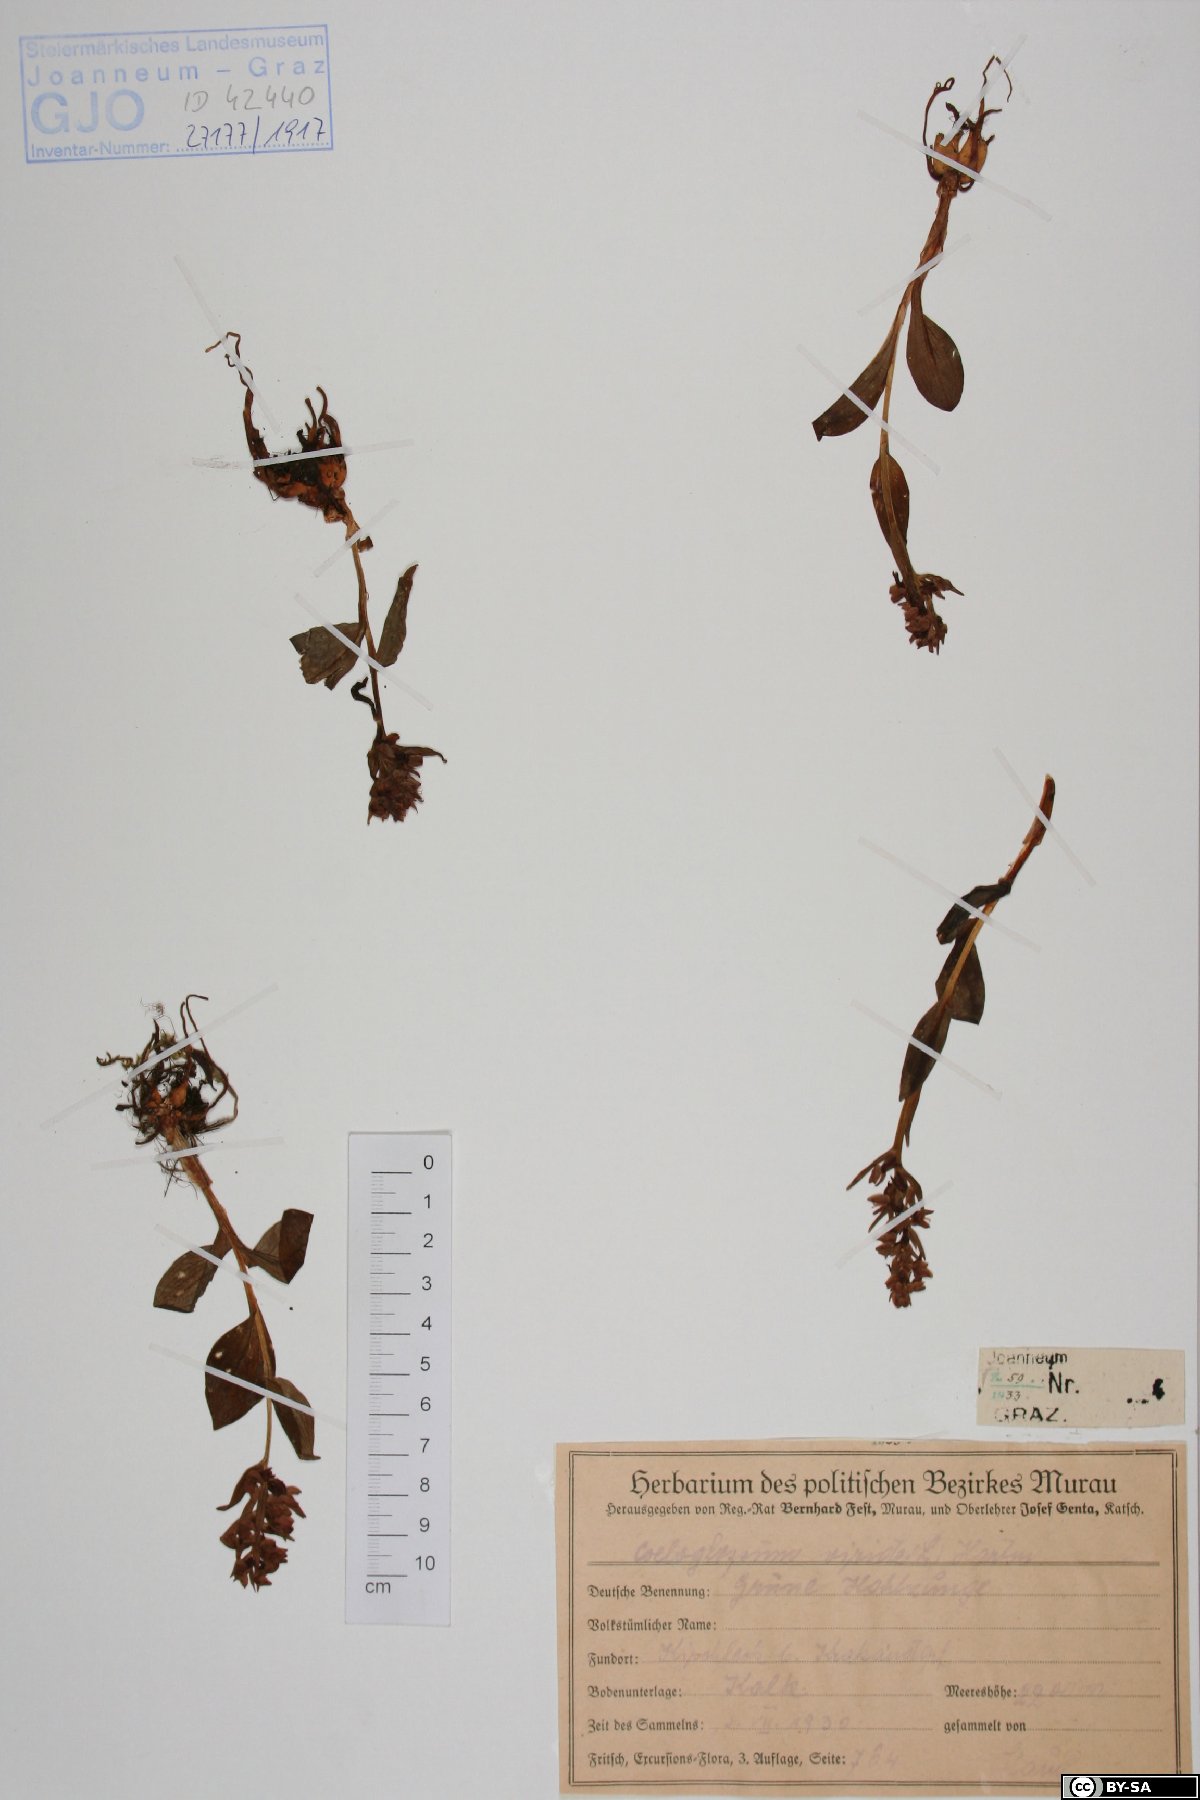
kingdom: Plantae
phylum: Tracheophyta
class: Liliopsida
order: Asparagales
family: Orchidaceae
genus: Dactylorhiza
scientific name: Dactylorhiza viridis
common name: Longbract frog orchid
